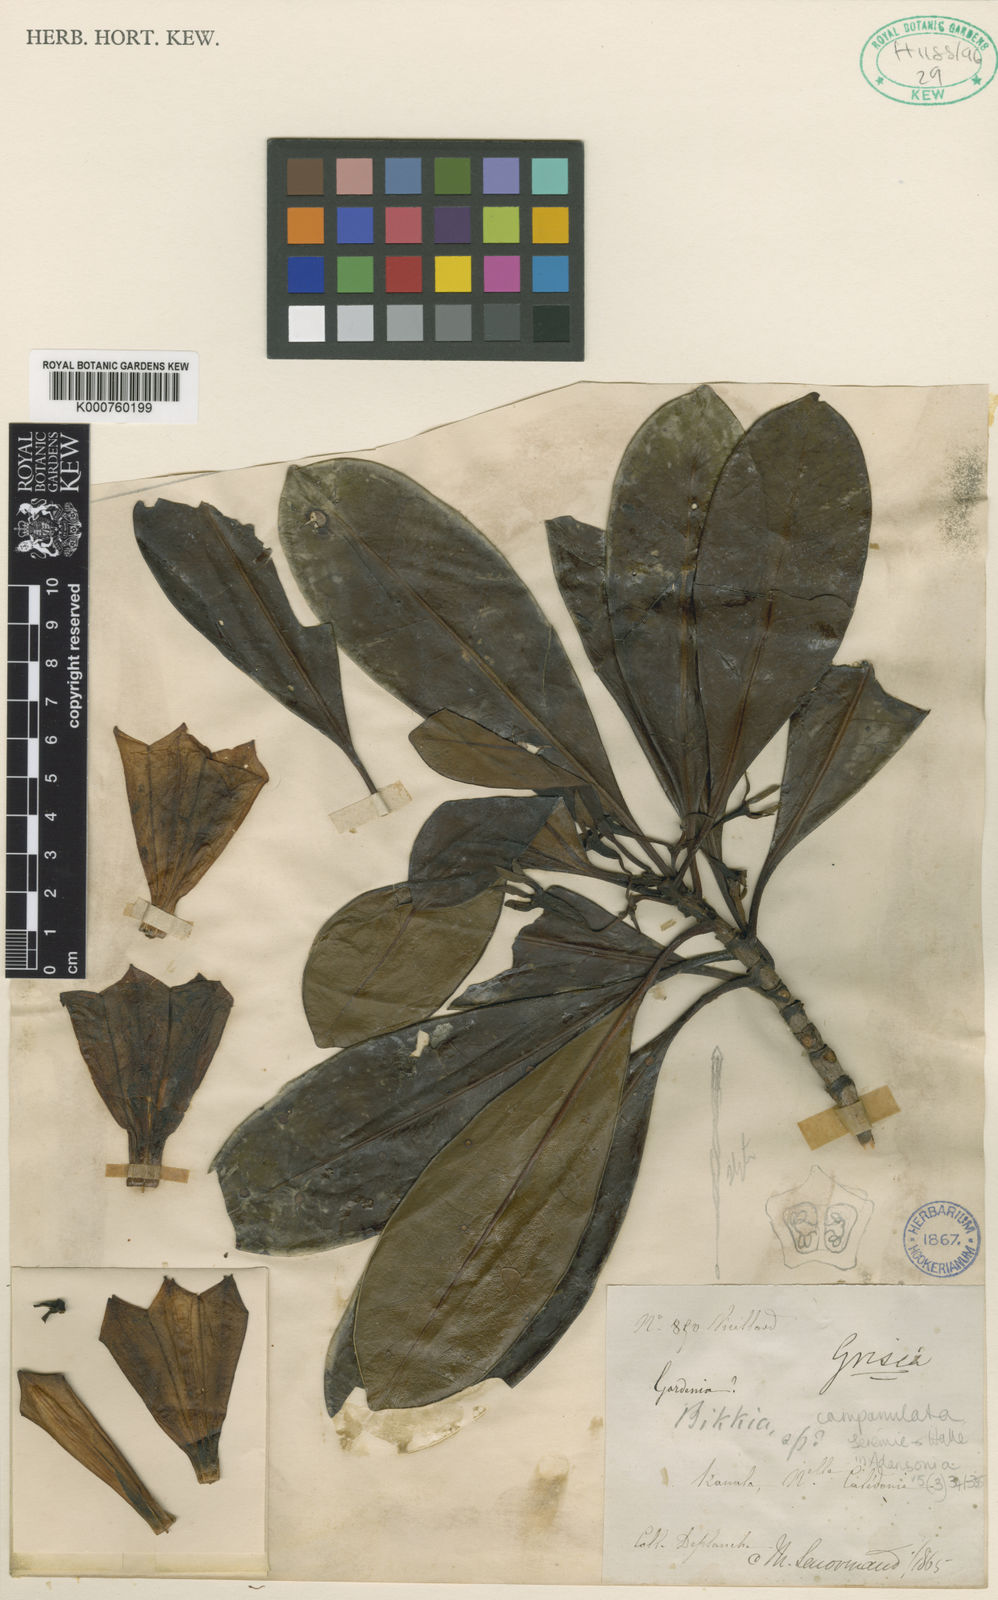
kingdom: Plantae
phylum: Tracheophyta
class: Magnoliopsida
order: Gentianales
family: Rubiaceae
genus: Thiollierea
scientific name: Thiollierea campanulata
